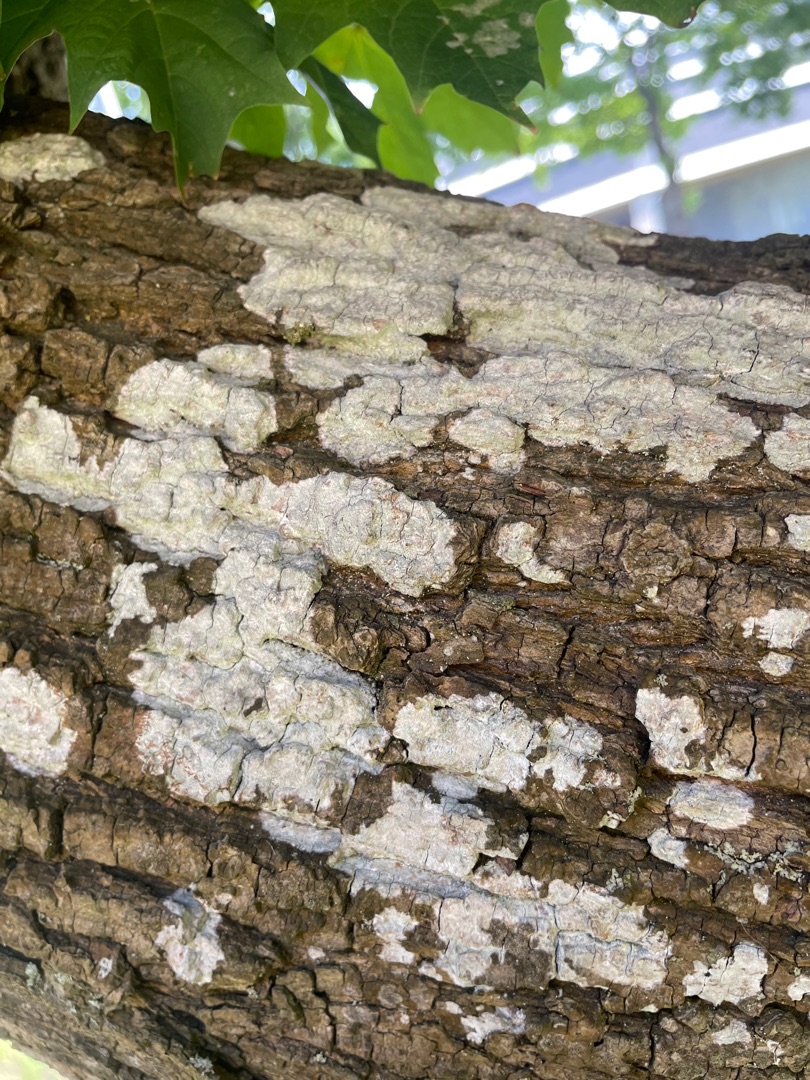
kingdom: Fungi
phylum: Ascomycota
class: Lecanoromycetes
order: Ostropales
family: Phlyctidaceae
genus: Phlyctis
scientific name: Phlyctis argena
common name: Almindelig sølvlav
